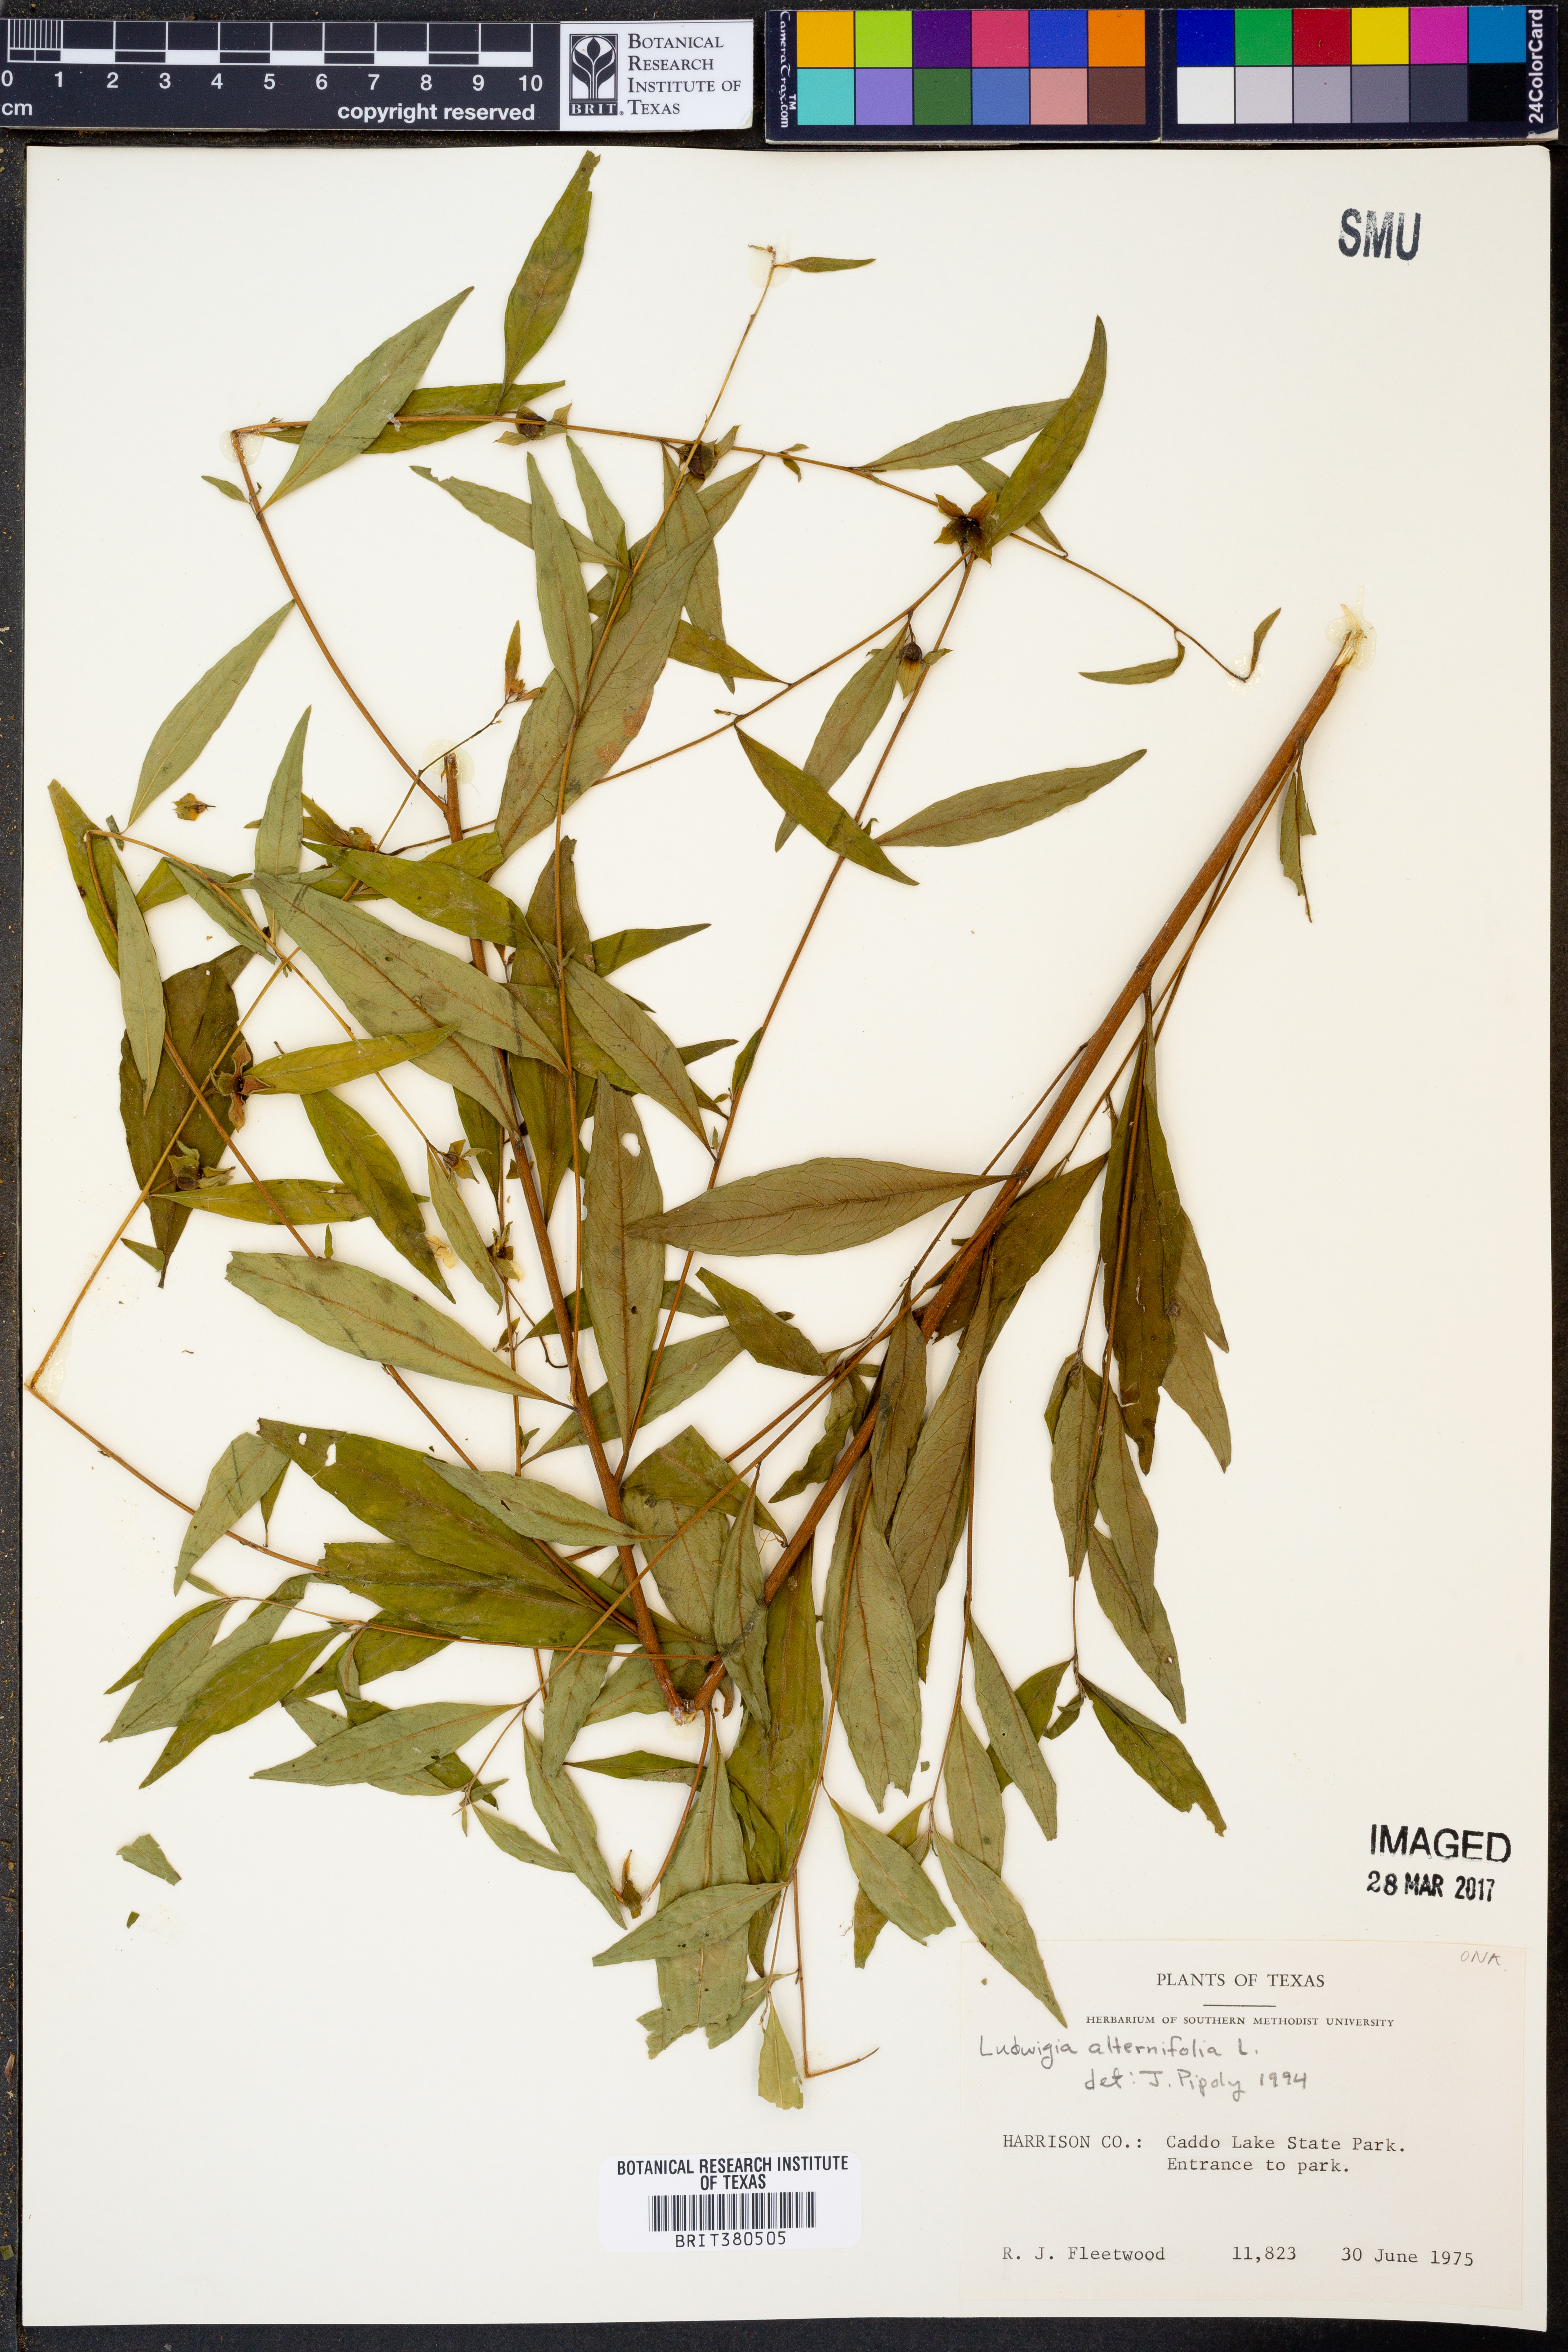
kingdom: Plantae
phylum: Tracheophyta
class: Magnoliopsida
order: Myrtales
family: Onagraceae
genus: Ludwigia
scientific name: Ludwigia alternifolia
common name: Rattlebox
